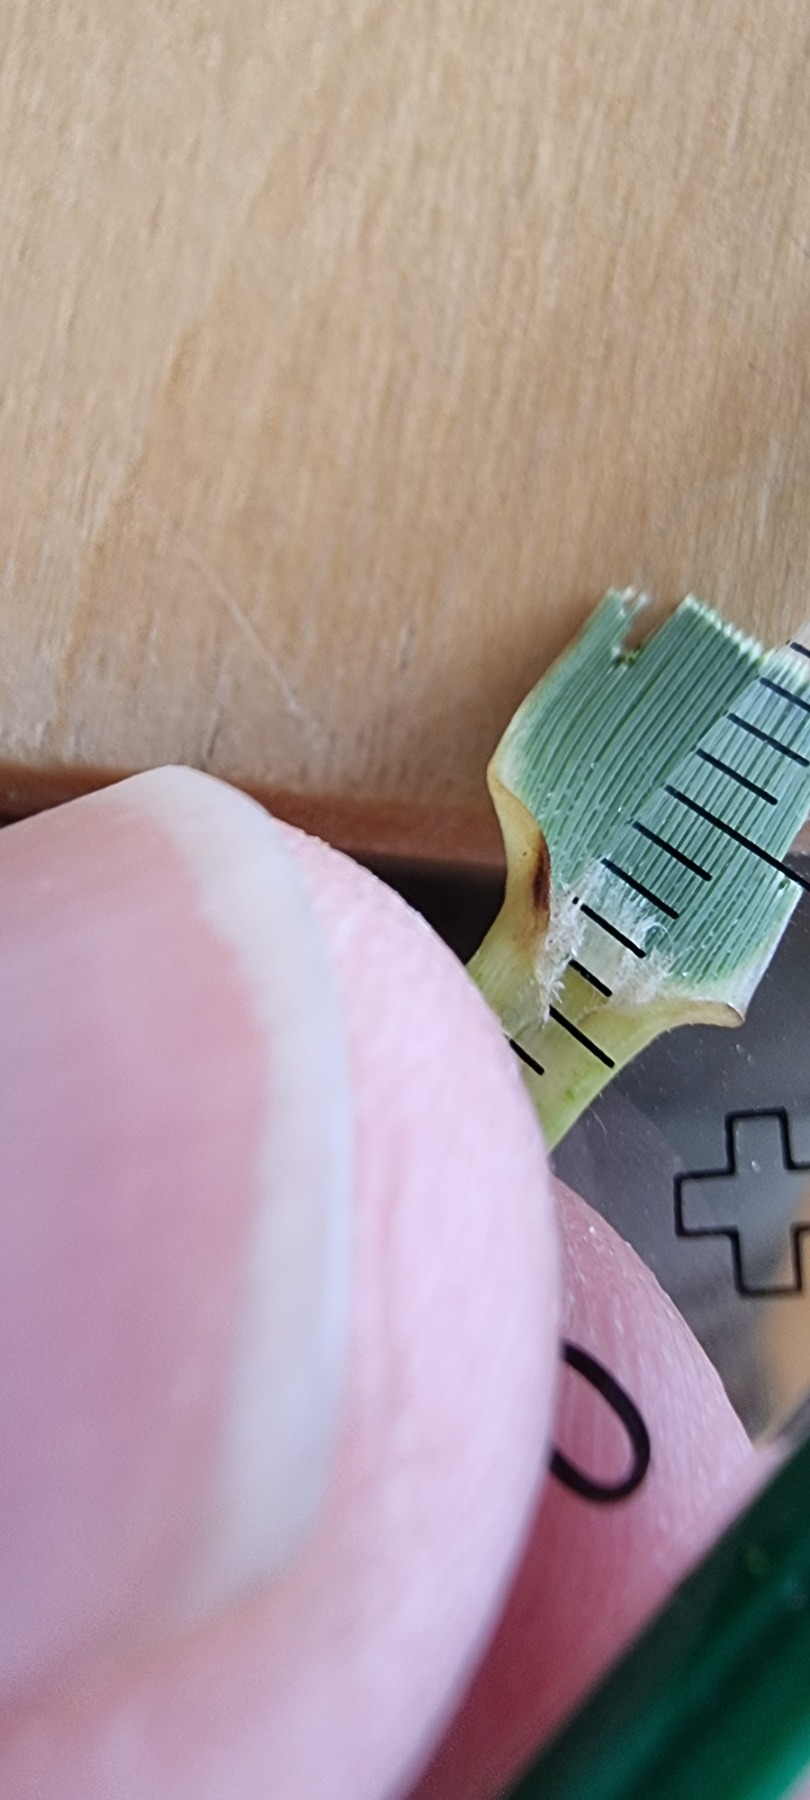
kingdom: Plantae
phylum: Tracheophyta
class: Liliopsida
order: Poales
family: Poaceae
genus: Sporobolus
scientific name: Sporobolus anglicus
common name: Engelsk vadegræs
